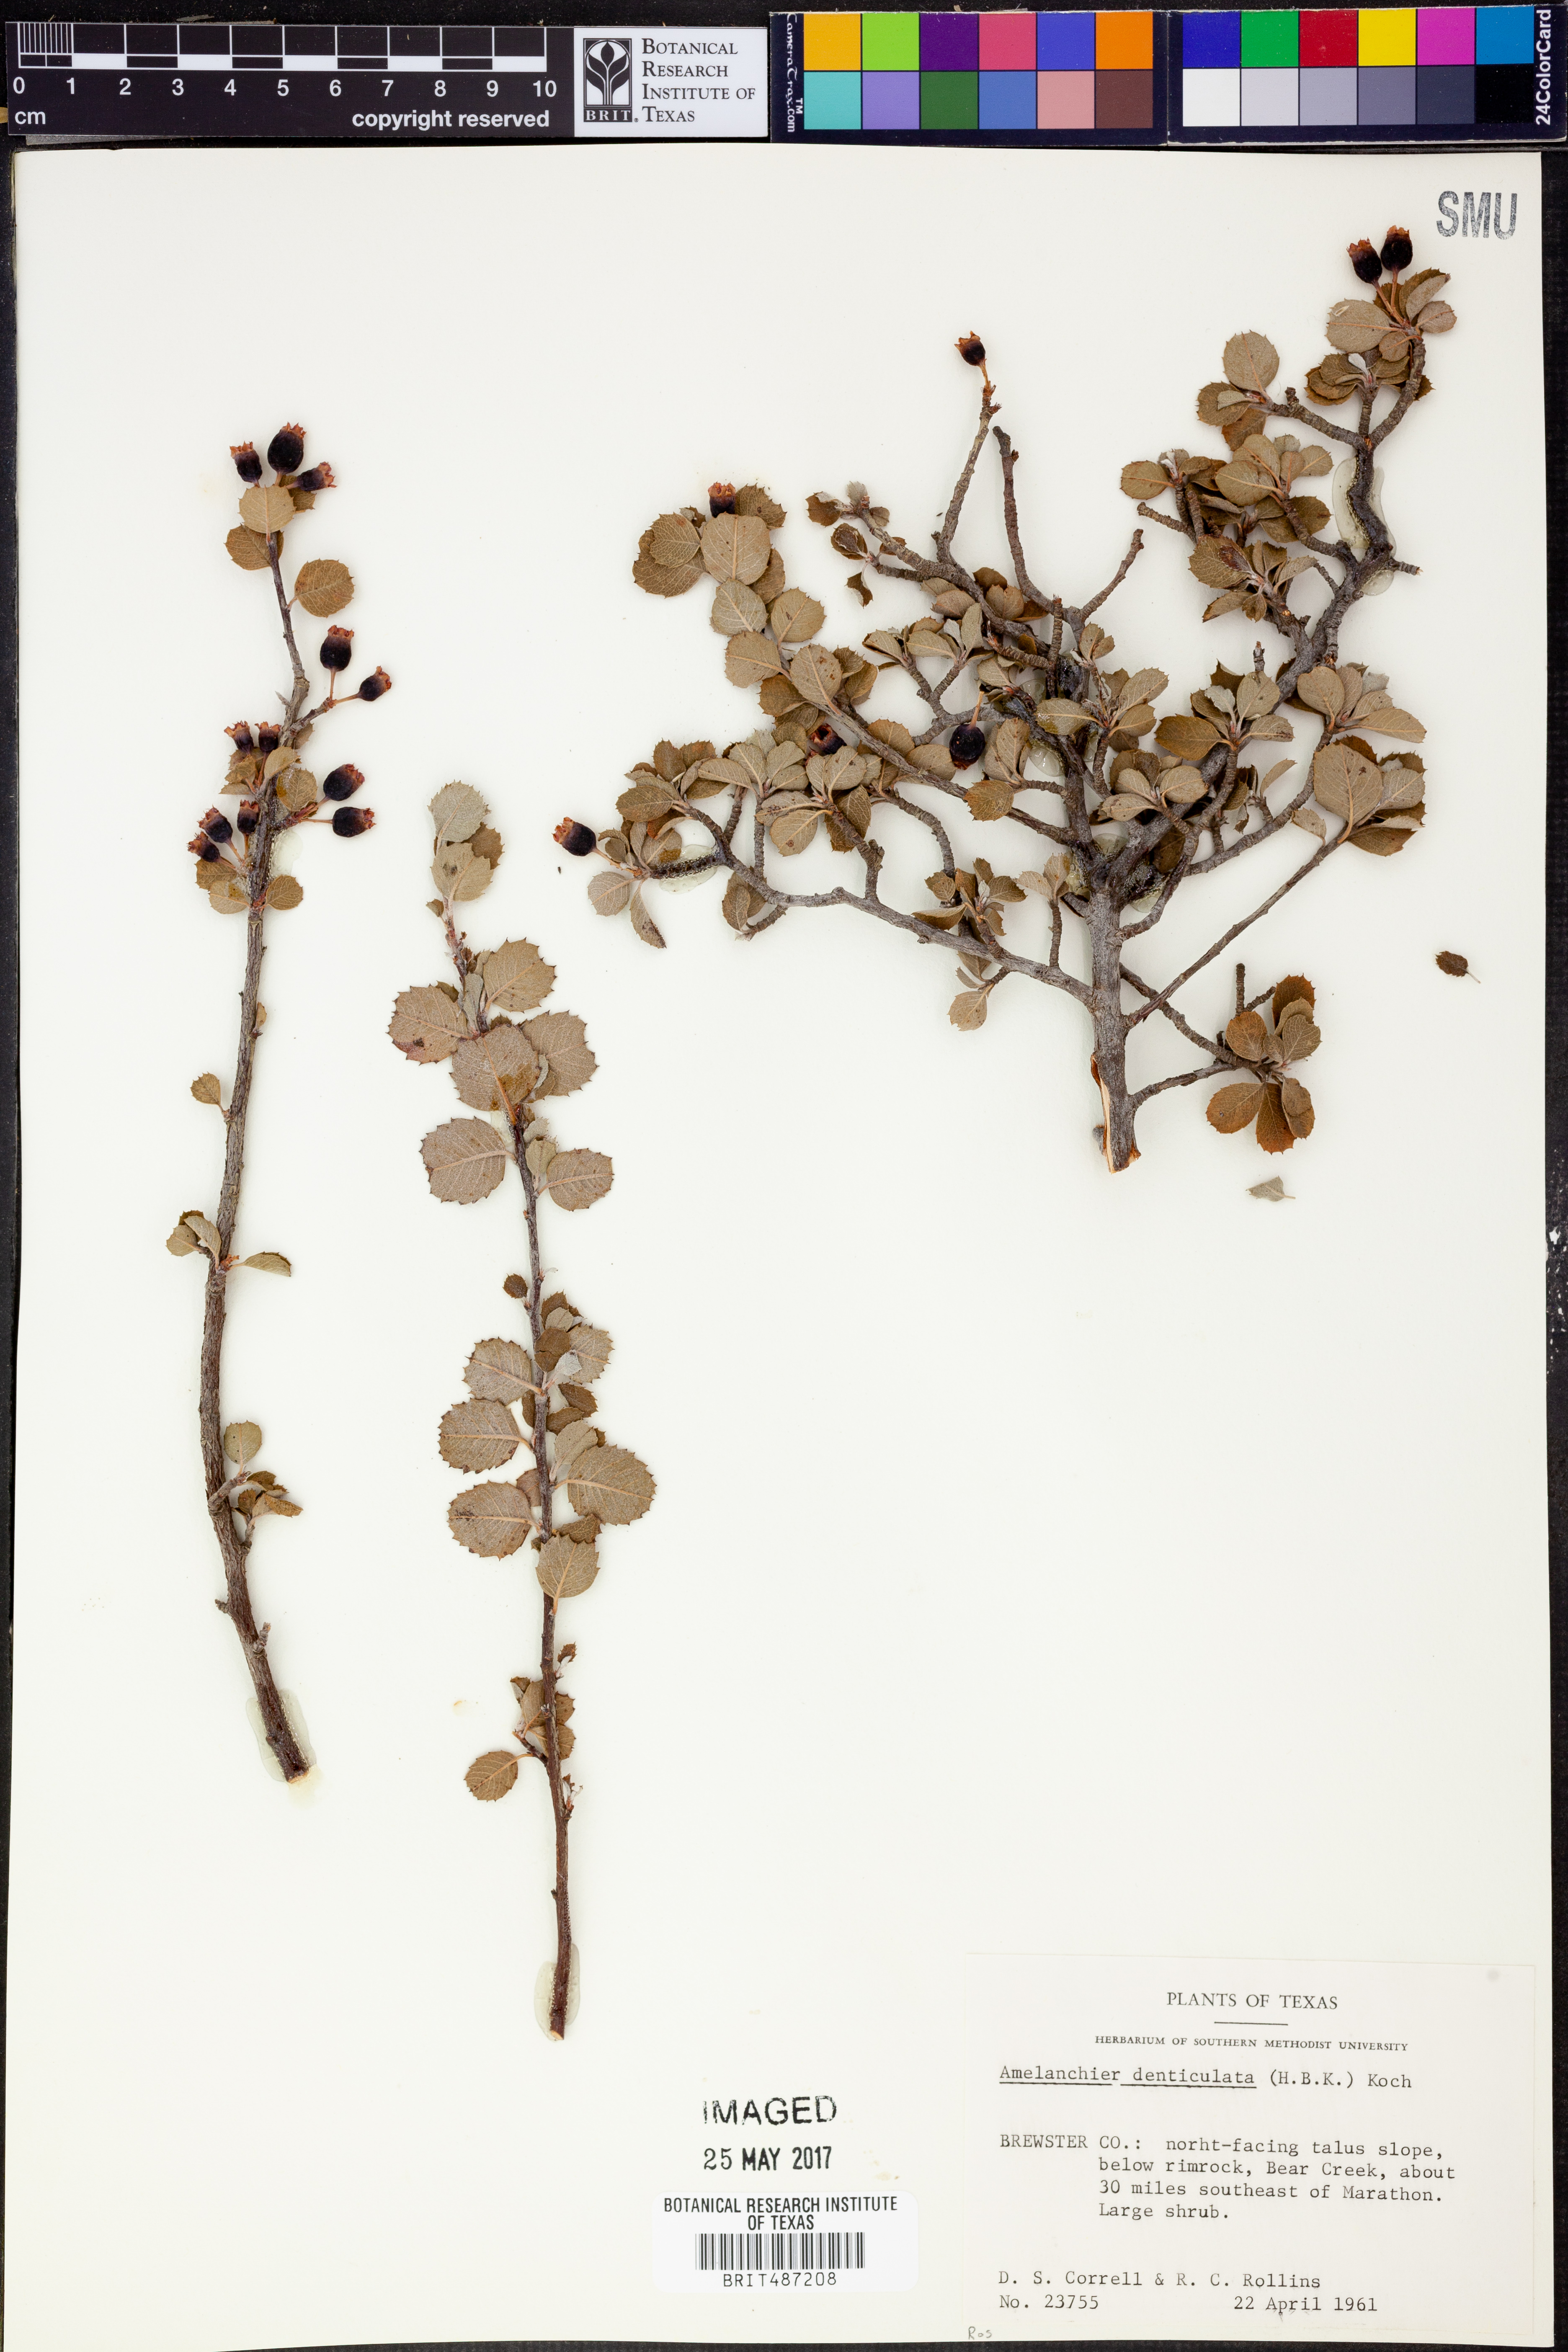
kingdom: Plantae
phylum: Tracheophyta
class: Magnoliopsida
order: Rosales
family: Rosaceae
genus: Malacomeles
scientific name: Malacomeles denticulata
